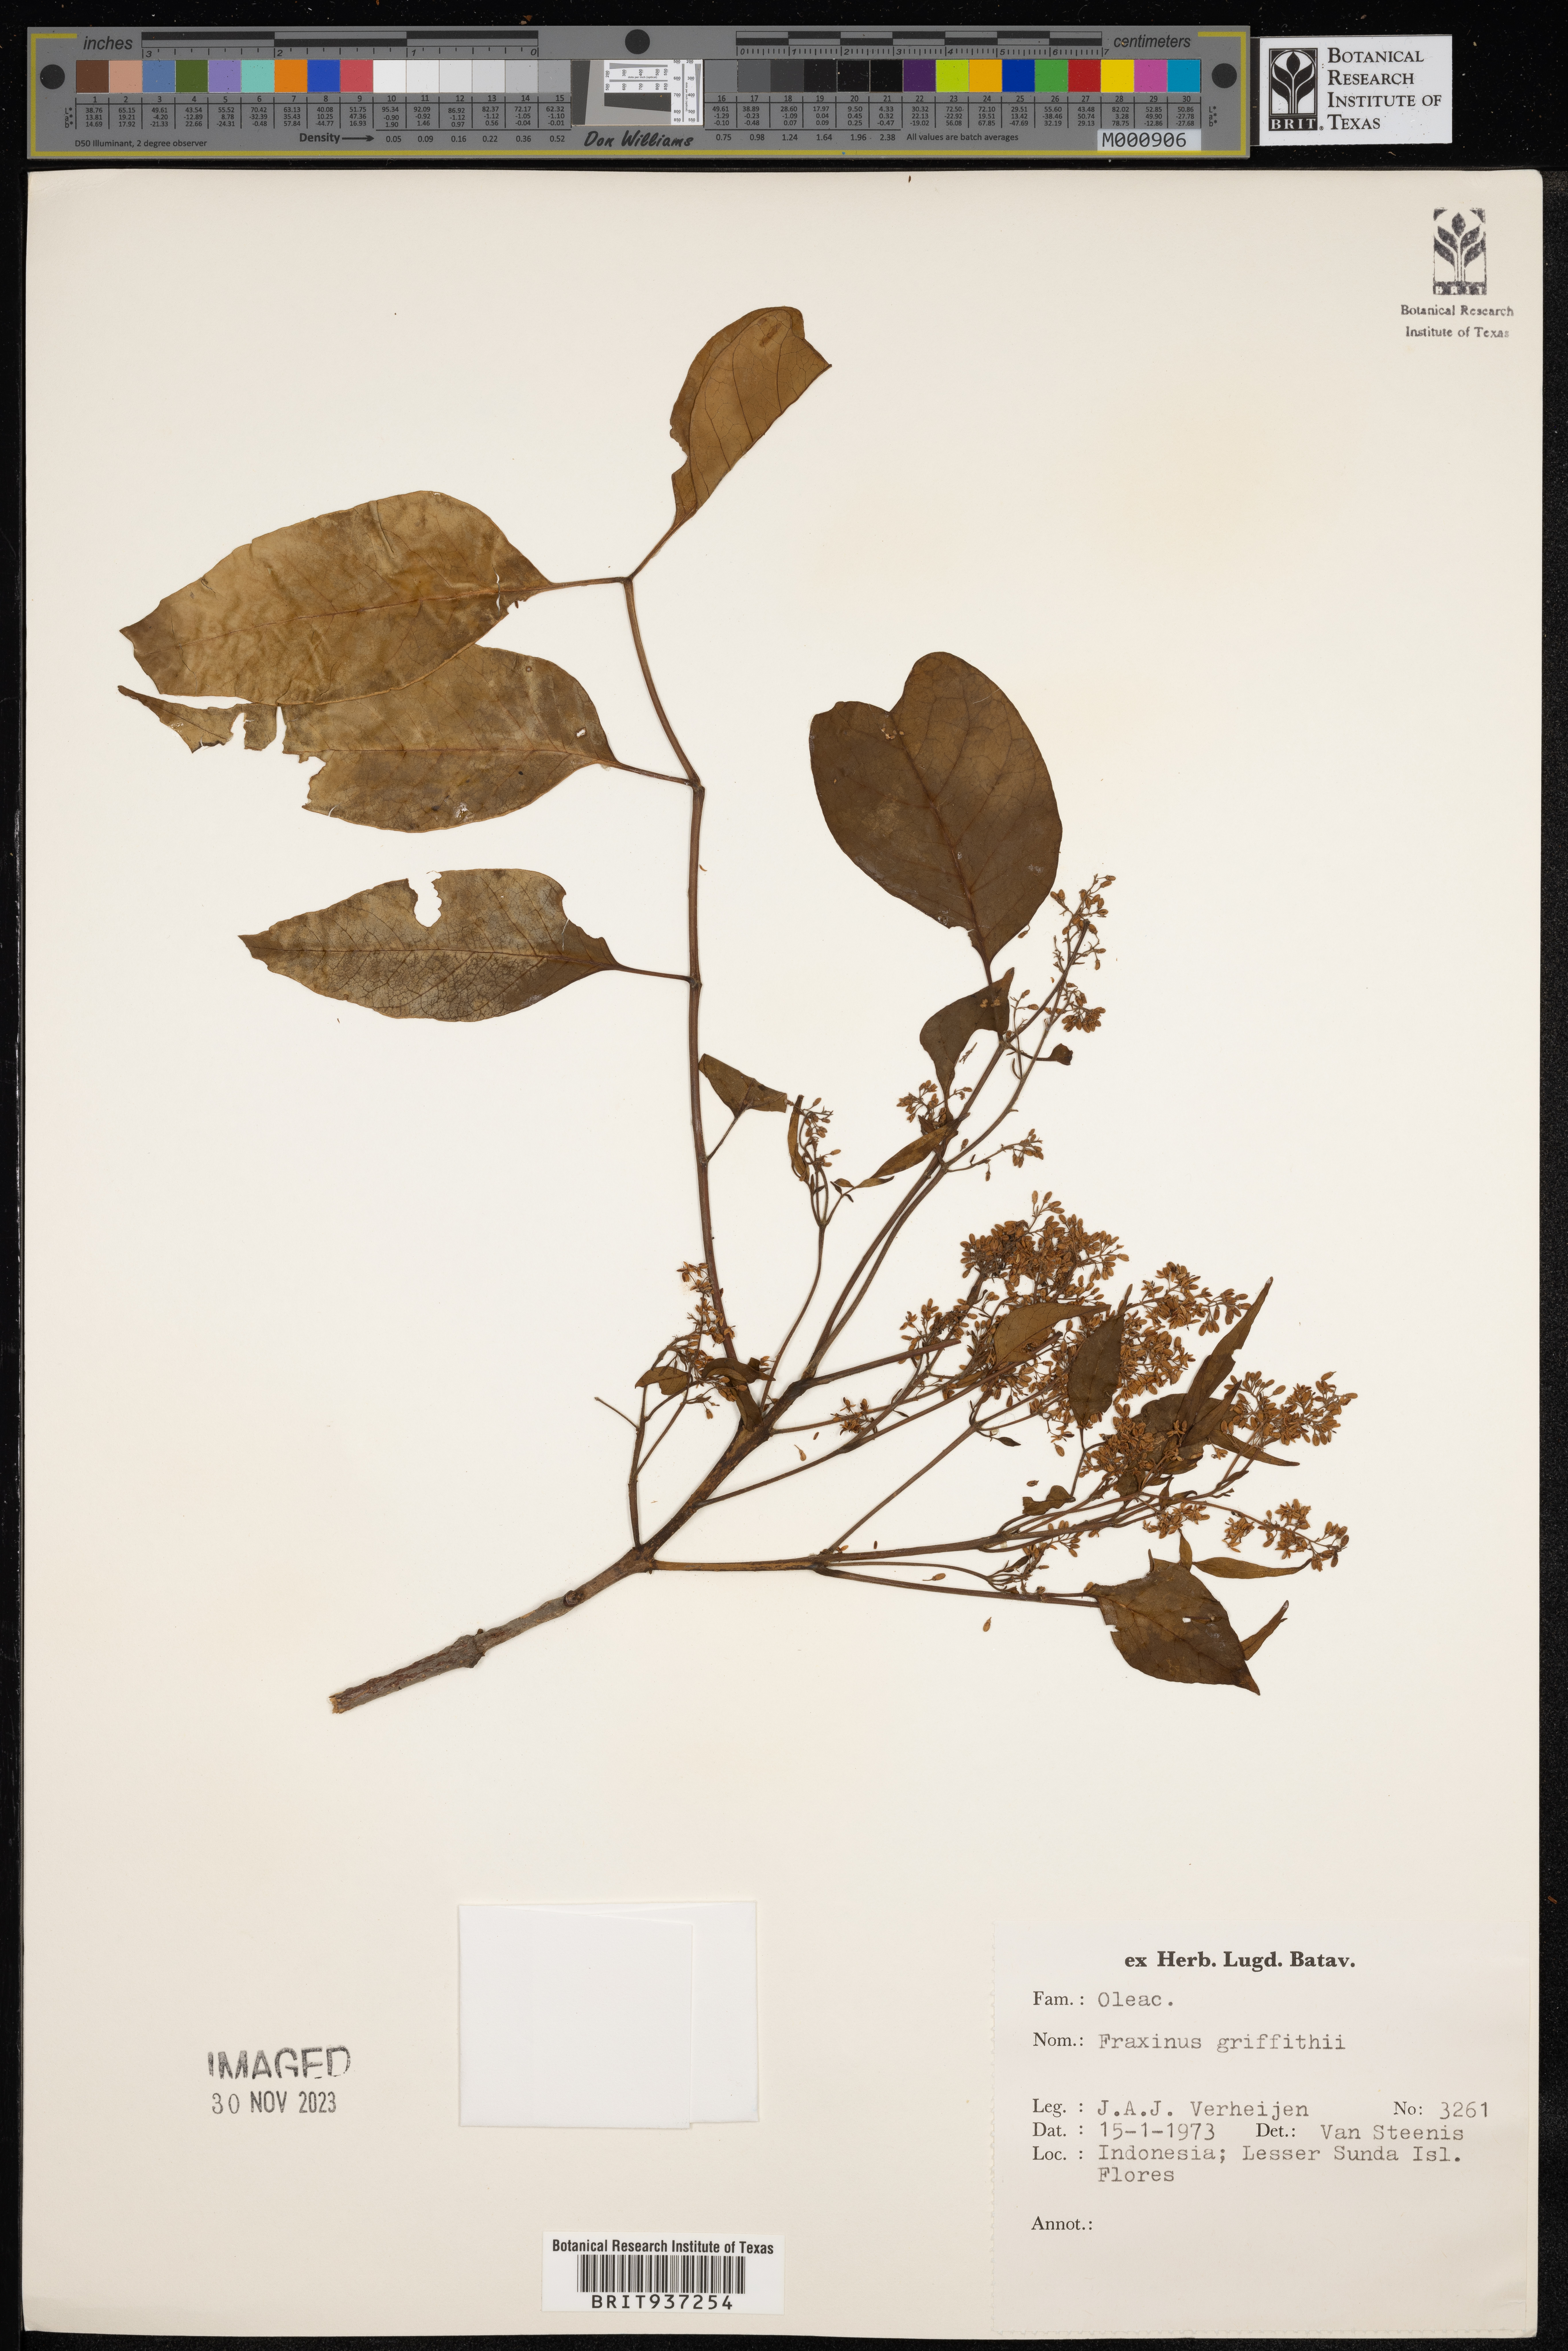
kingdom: Plantae
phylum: Tracheophyta
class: Magnoliopsida
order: Lamiales
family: Oleaceae
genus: Fraxinus
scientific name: Fraxinus
